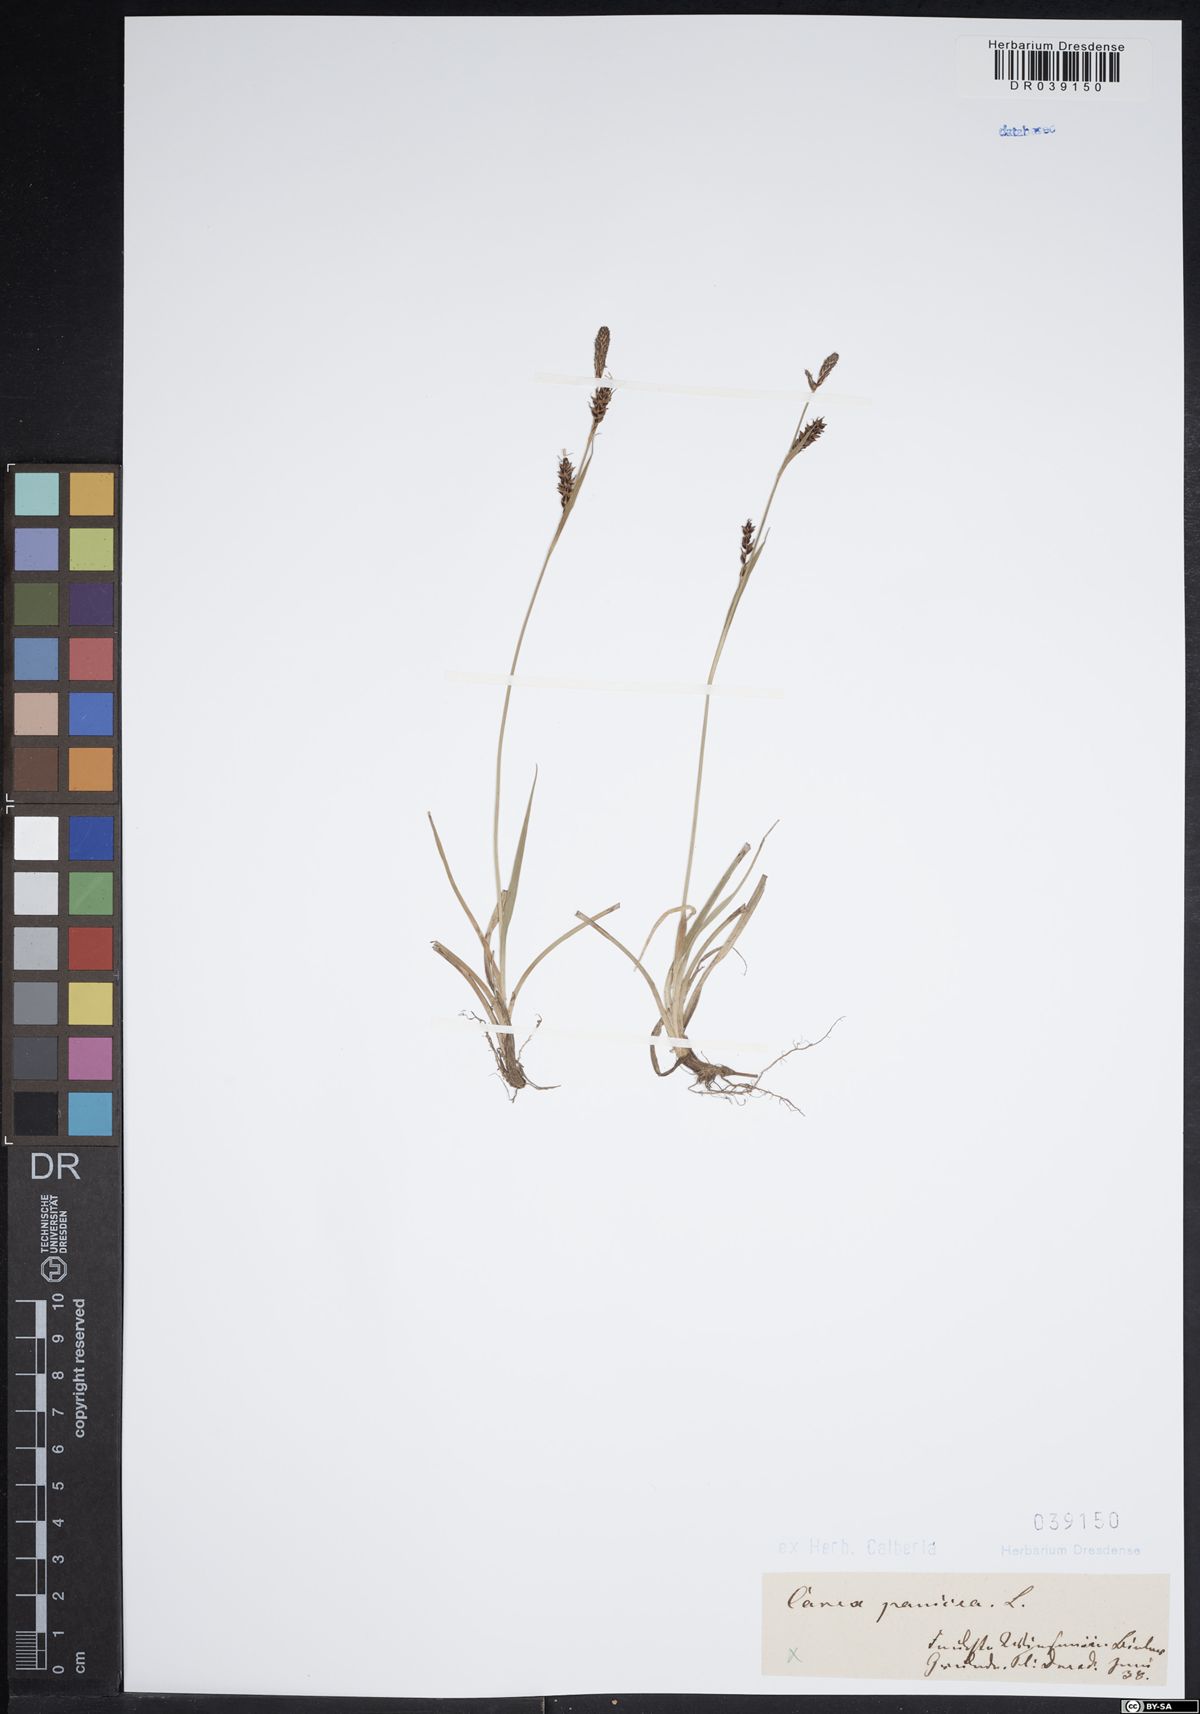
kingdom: Plantae
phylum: Tracheophyta
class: Liliopsida
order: Poales
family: Cyperaceae
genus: Carex
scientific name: Carex panicea
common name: Carnation sedge
